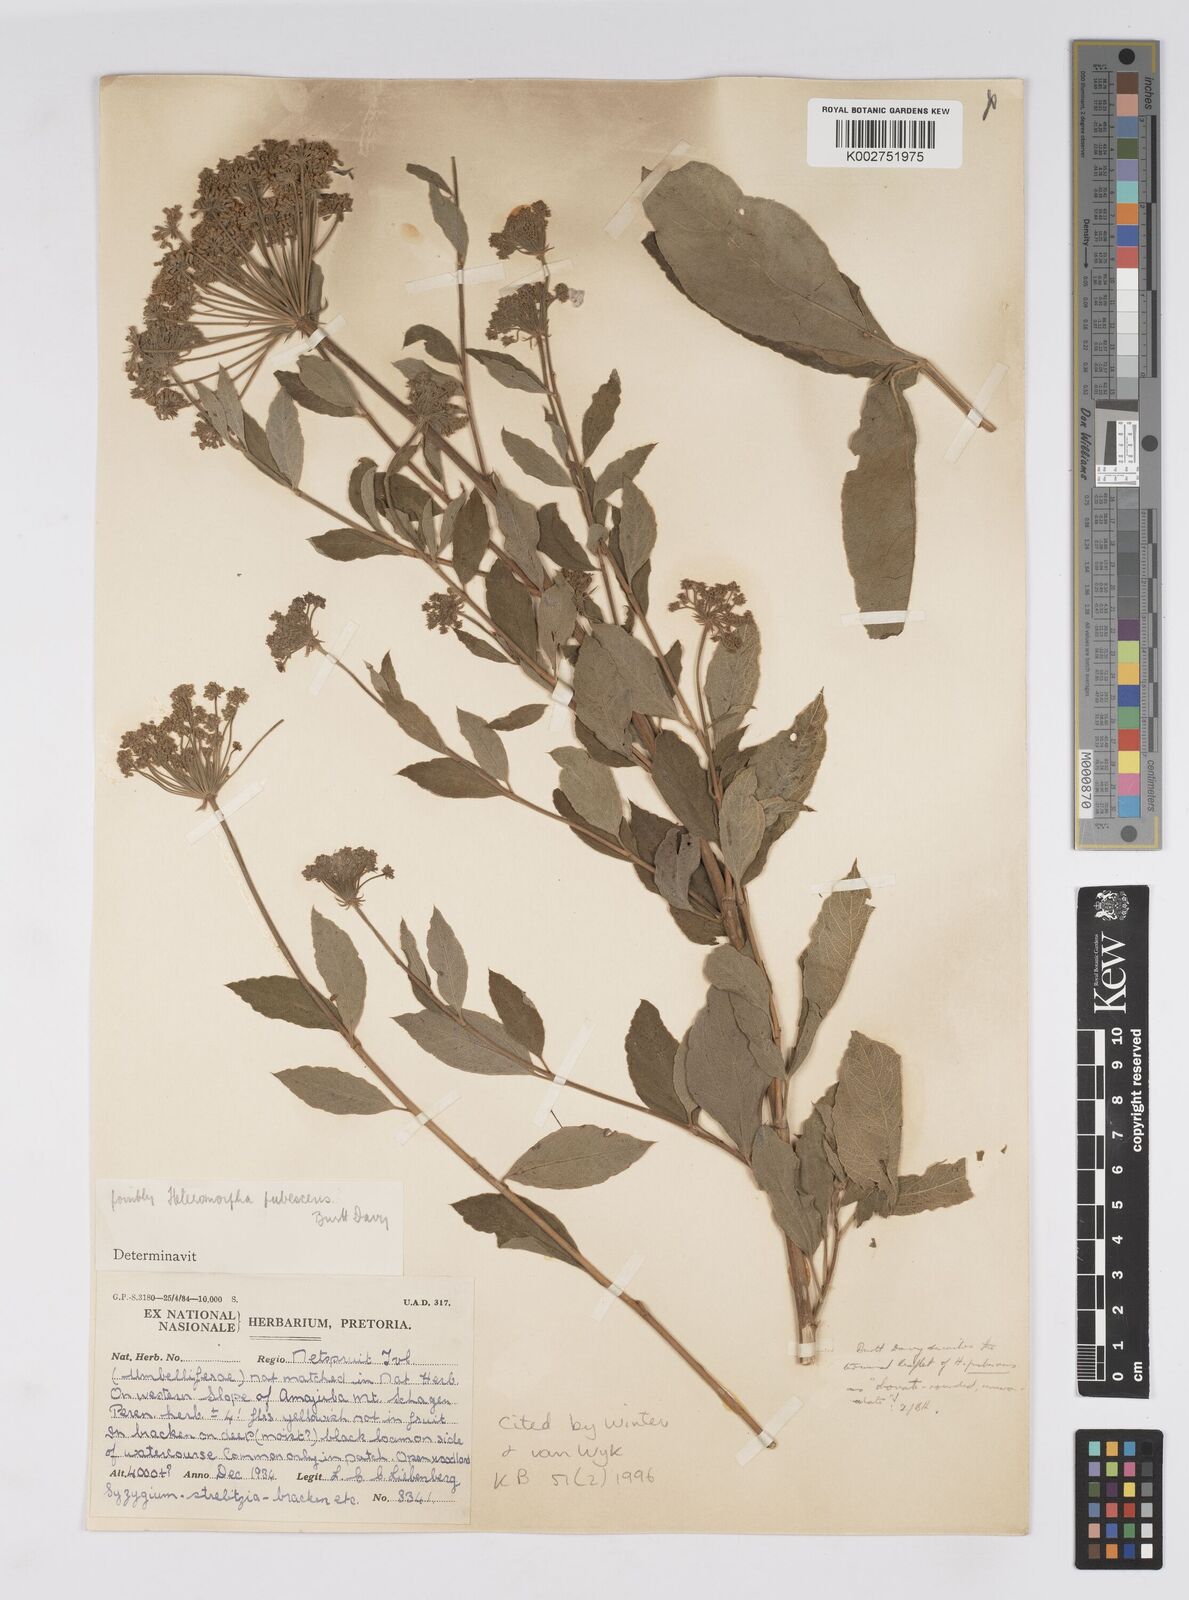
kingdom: Plantae
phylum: Tracheophyta
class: Magnoliopsida
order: Apiales
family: Apiaceae
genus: Heteromorpha
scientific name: Heteromorpha pubescens
